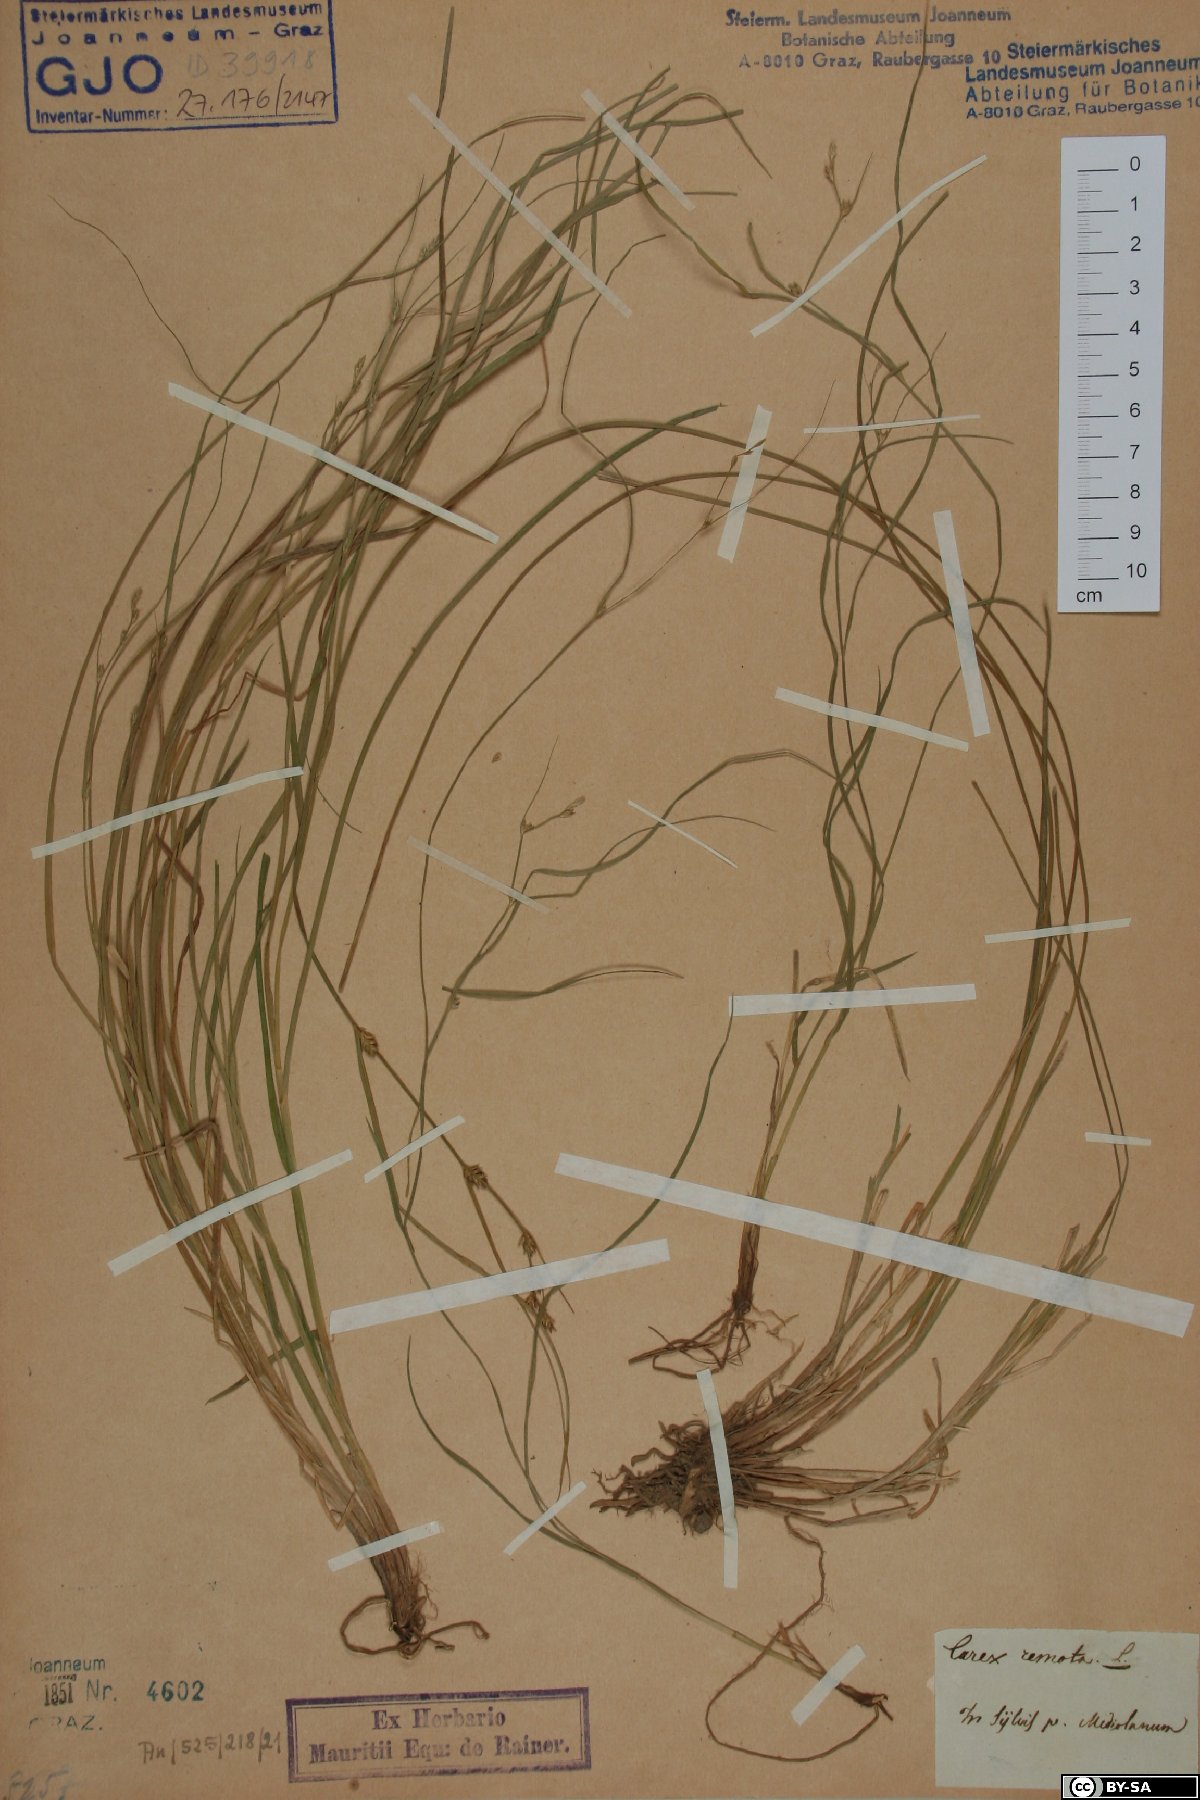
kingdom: Plantae
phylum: Tracheophyta
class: Liliopsida
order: Poales
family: Cyperaceae
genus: Carex
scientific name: Carex remota
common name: Remote sedge
